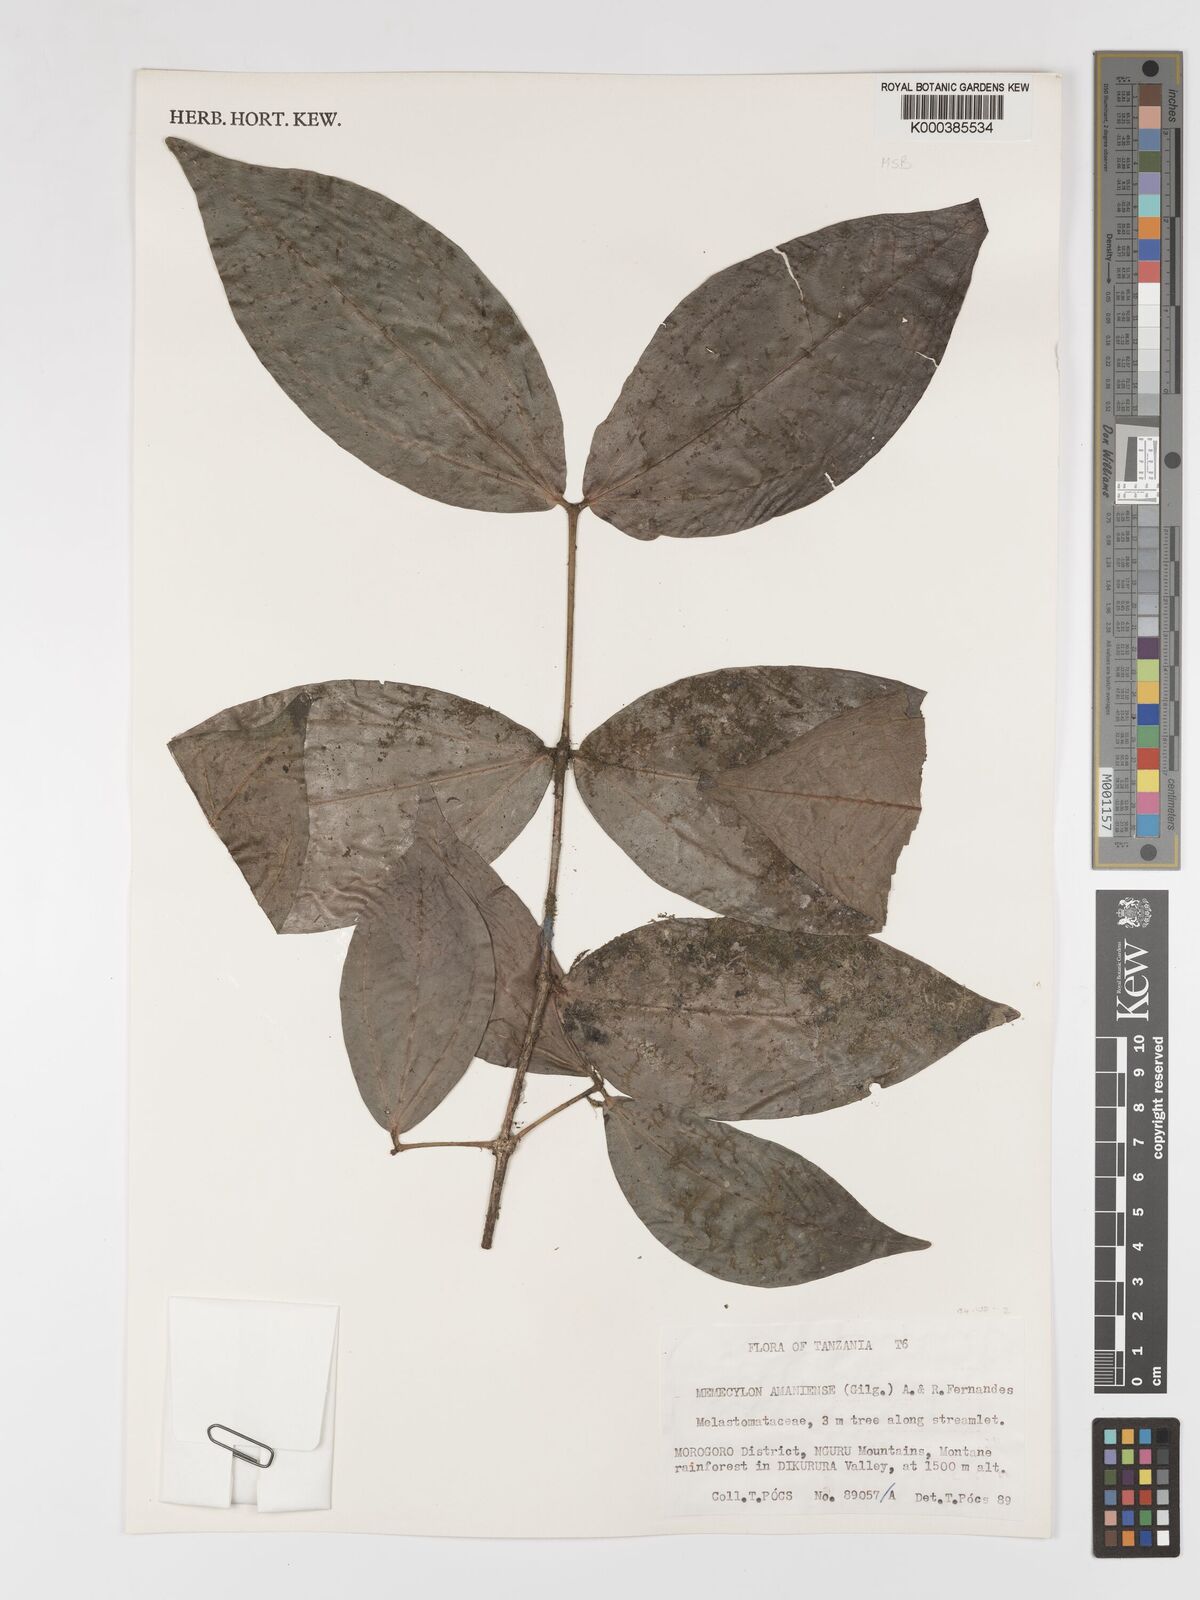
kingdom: Plantae
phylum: Tracheophyta
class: Magnoliopsida
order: Myrtales
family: Melastomataceae
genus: Warneckea
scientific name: Warneckea amaniensis
